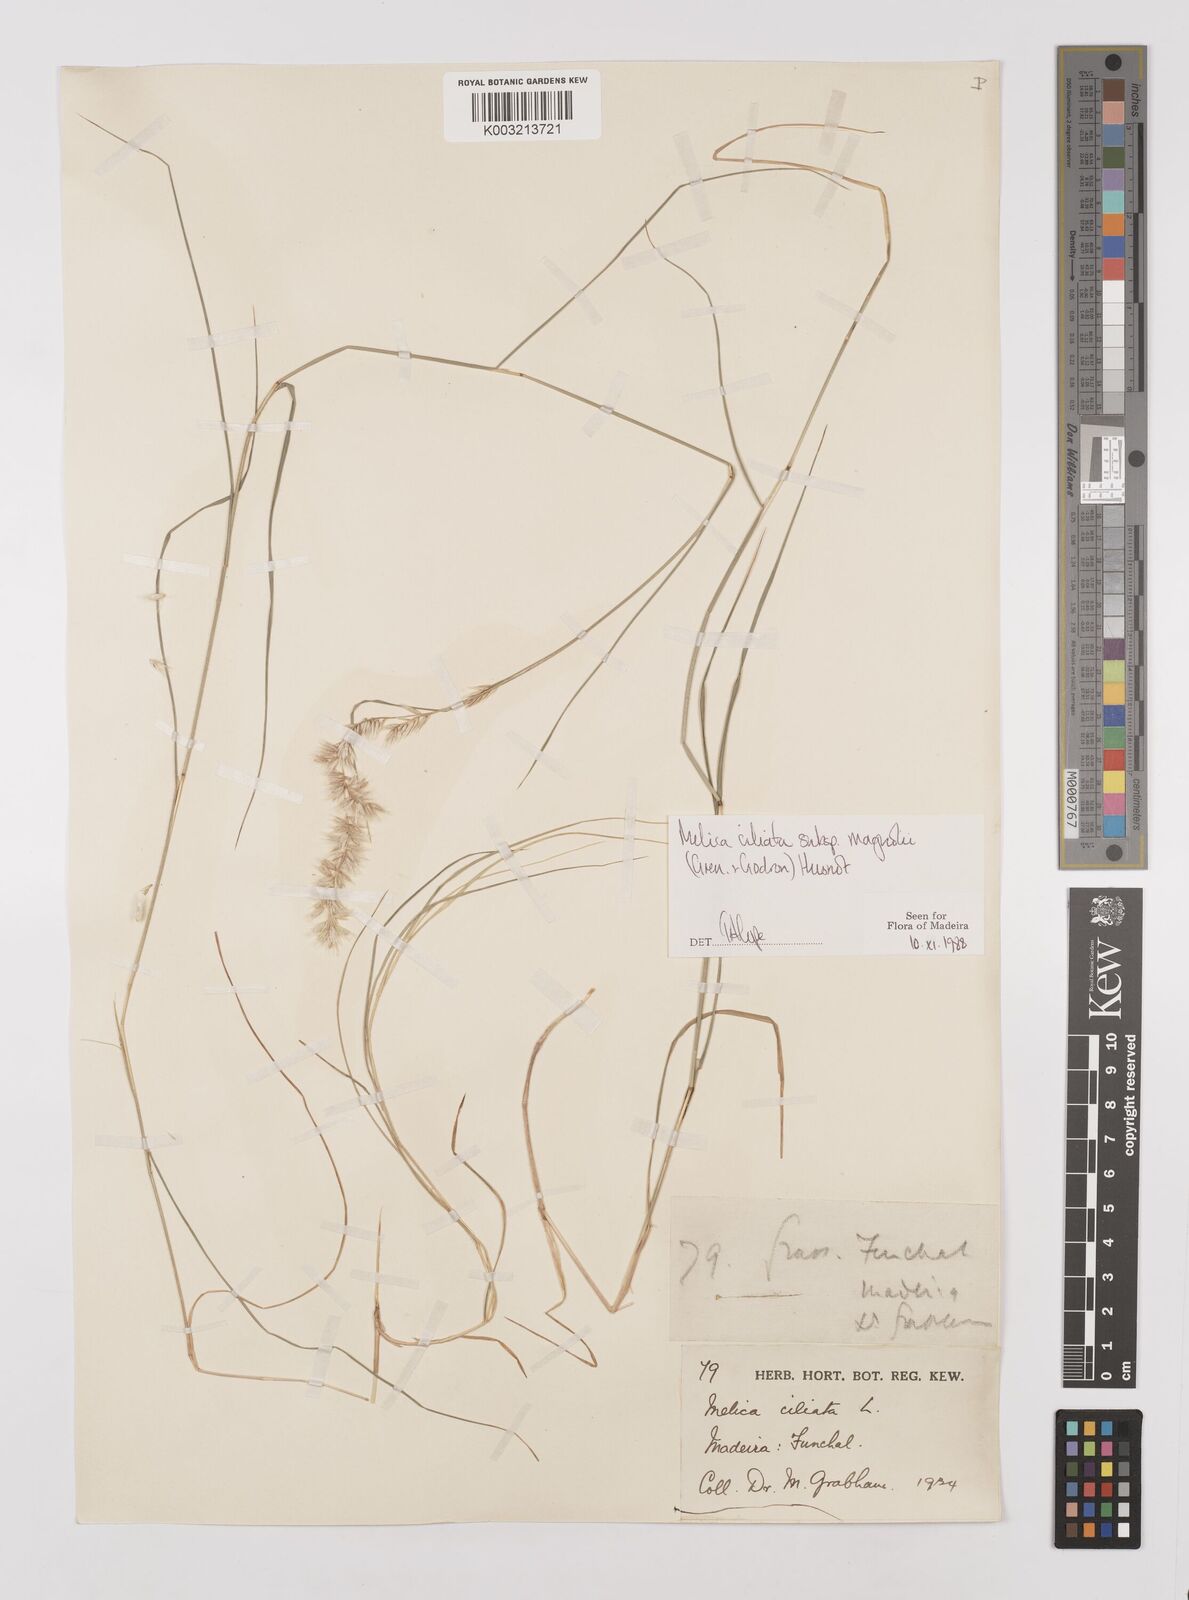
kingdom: Plantae
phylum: Tracheophyta
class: Liliopsida
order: Poales
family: Poaceae
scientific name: Poaceae
